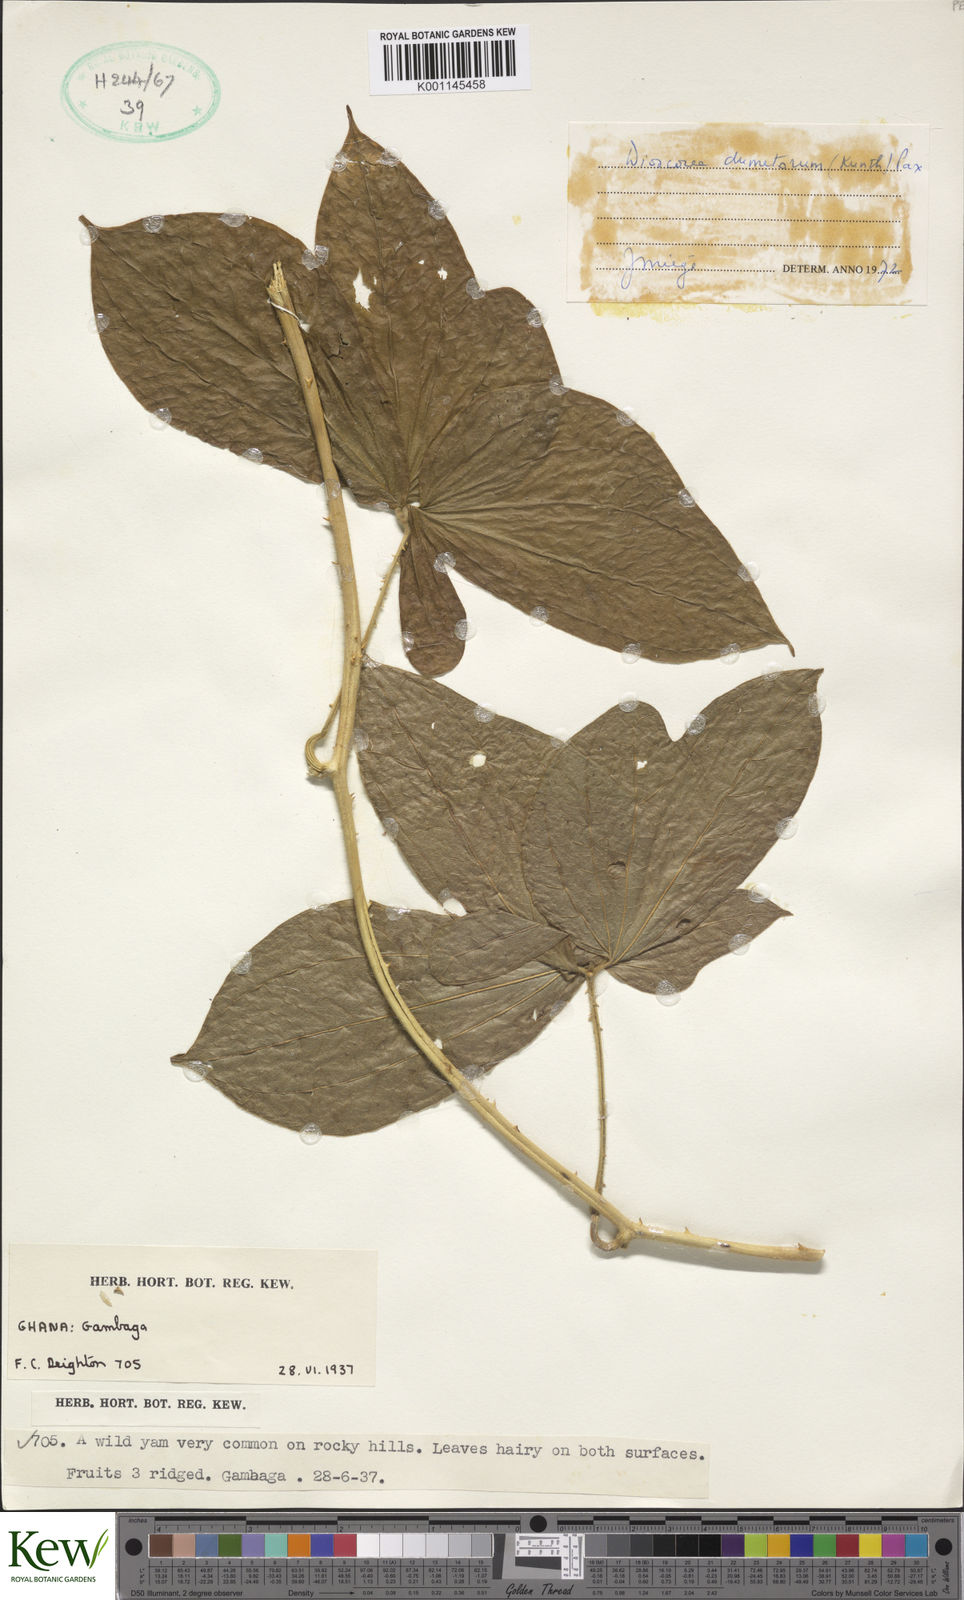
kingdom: Plantae
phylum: Tracheophyta
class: Liliopsida
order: Dioscoreales
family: Dioscoreaceae
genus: Dioscorea
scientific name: Dioscorea dumetorum
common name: African bitter yam
